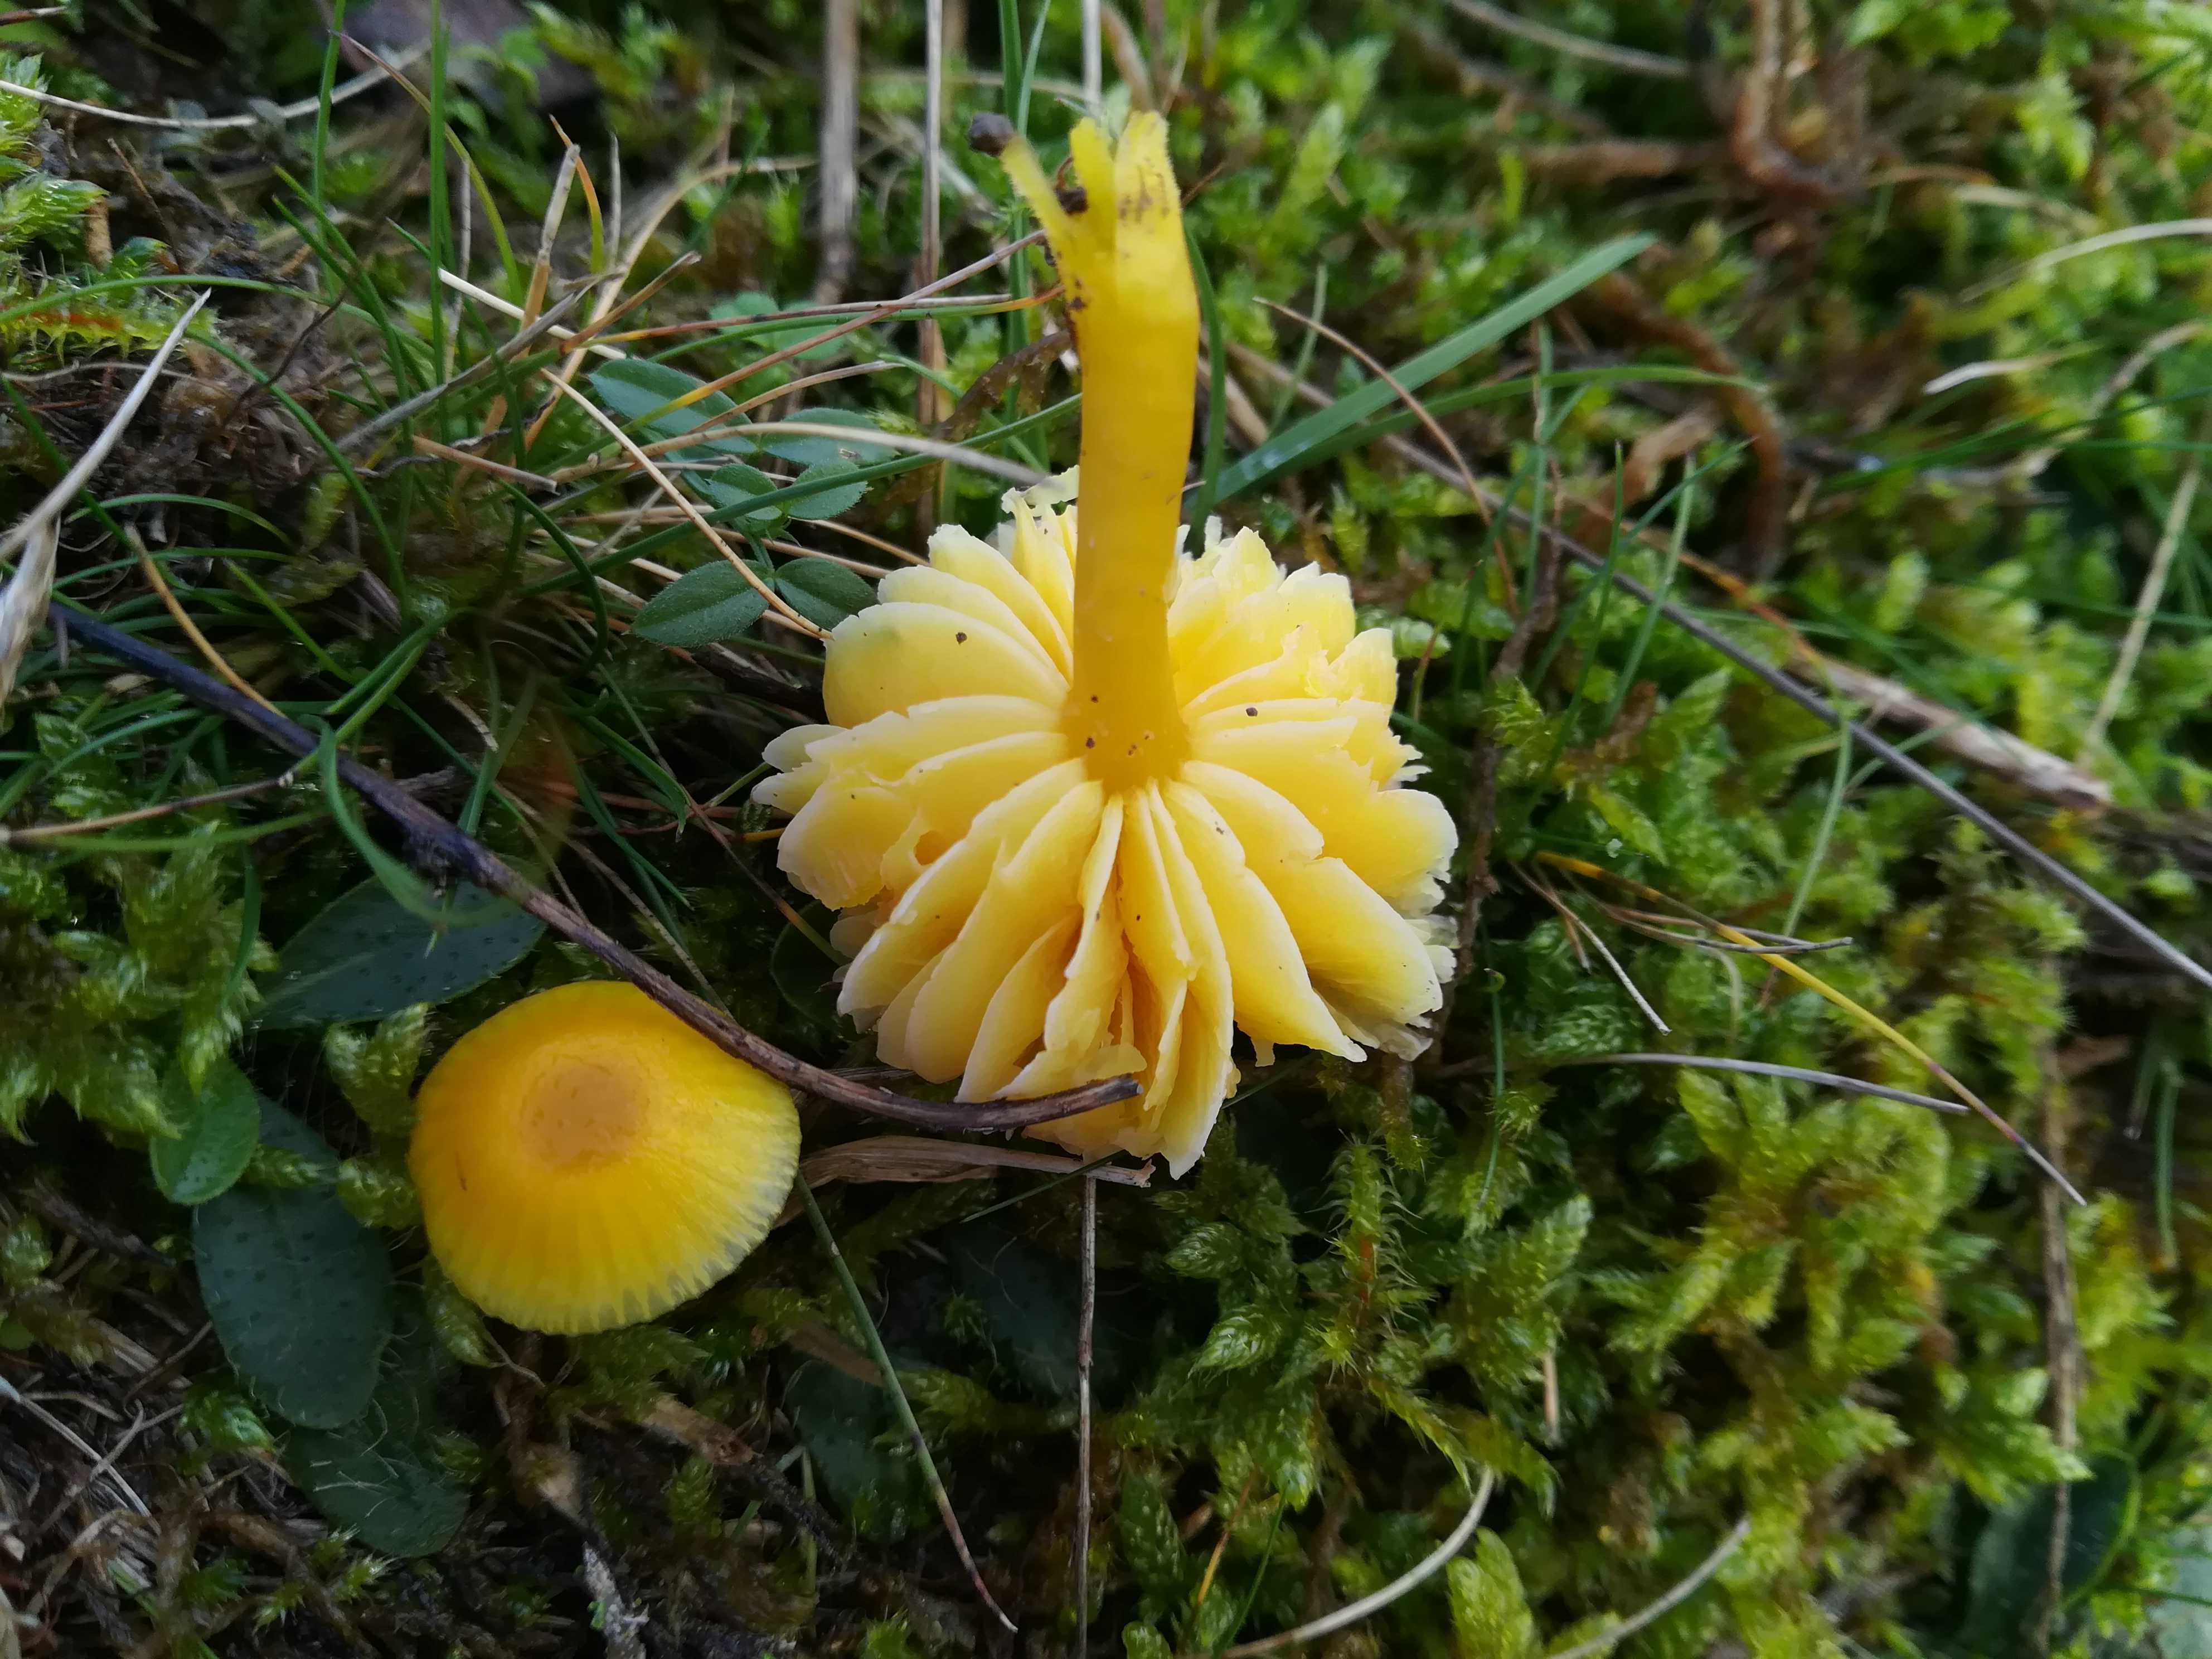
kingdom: Fungi
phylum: Basidiomycota
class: Agaricomycetes
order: Agaricales
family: Hygrophoraceae
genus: Hygrocybe
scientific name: Hygrocybe ceracea
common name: voksgul vokshat
